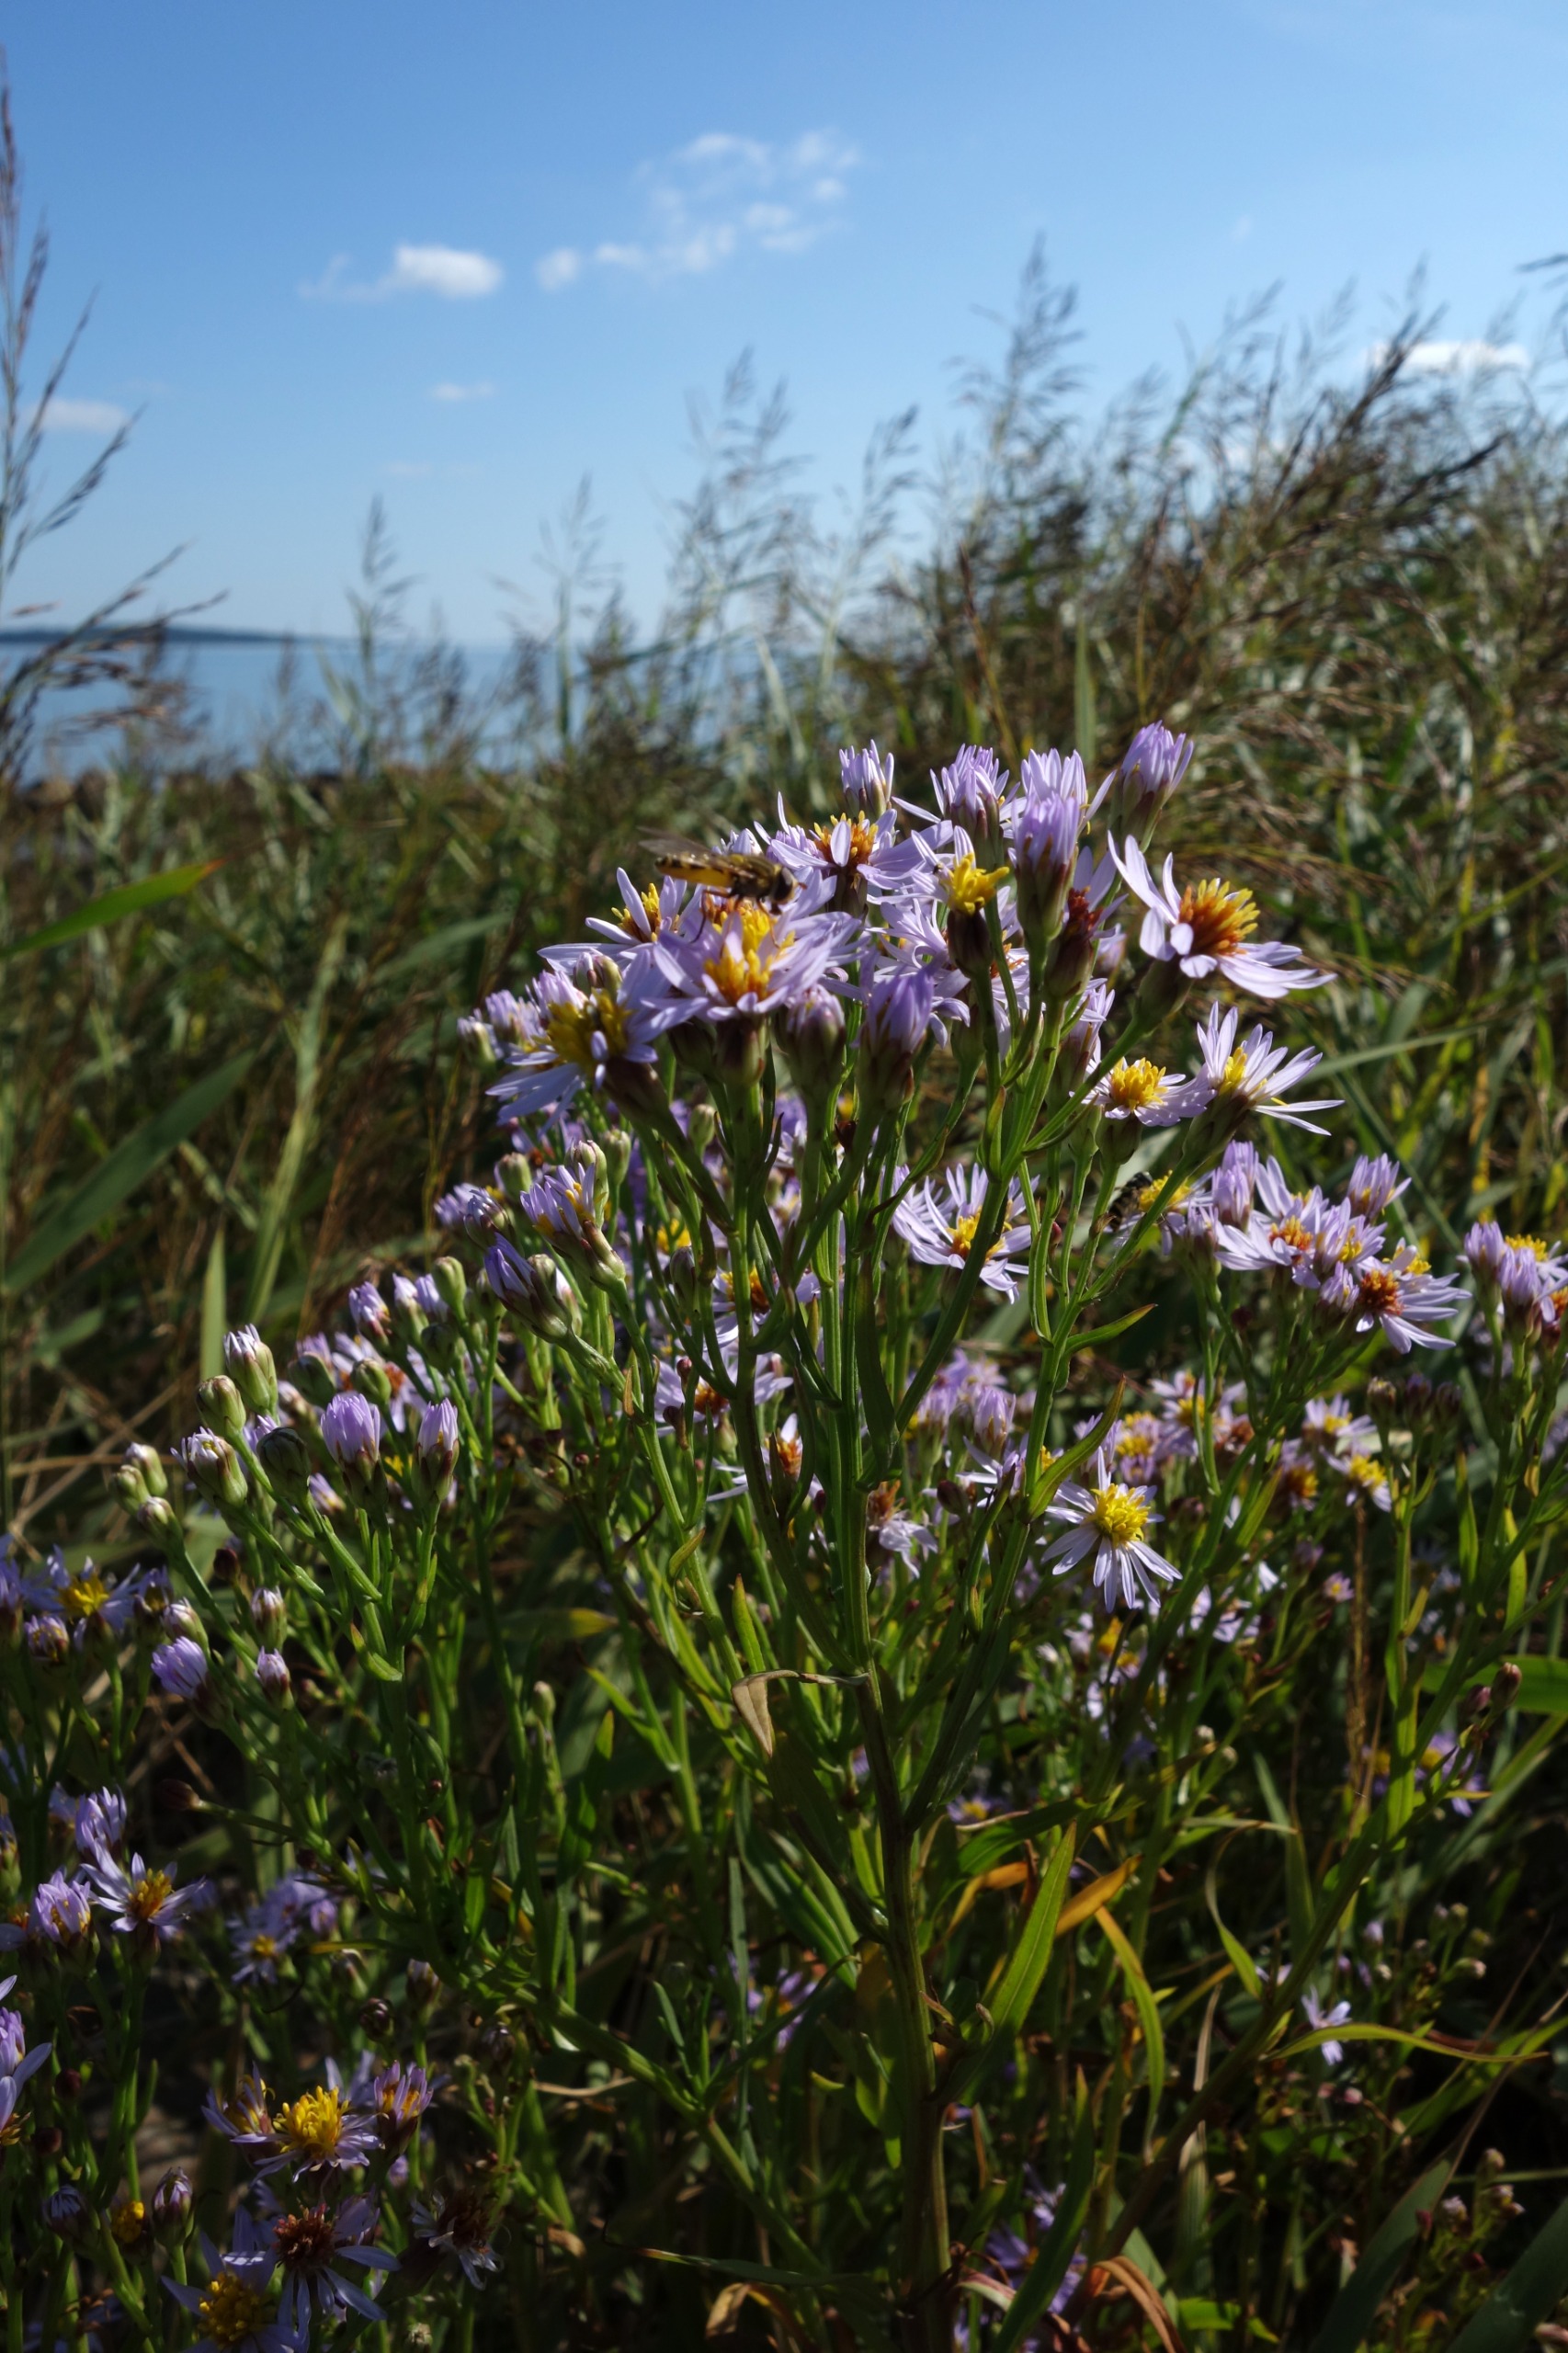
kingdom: Plantae
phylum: Tracheophyta
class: Magnoliopsida
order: Asterales
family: Asteraceae
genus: Tripolium
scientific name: Tripolium pannonicum
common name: Strandasters
